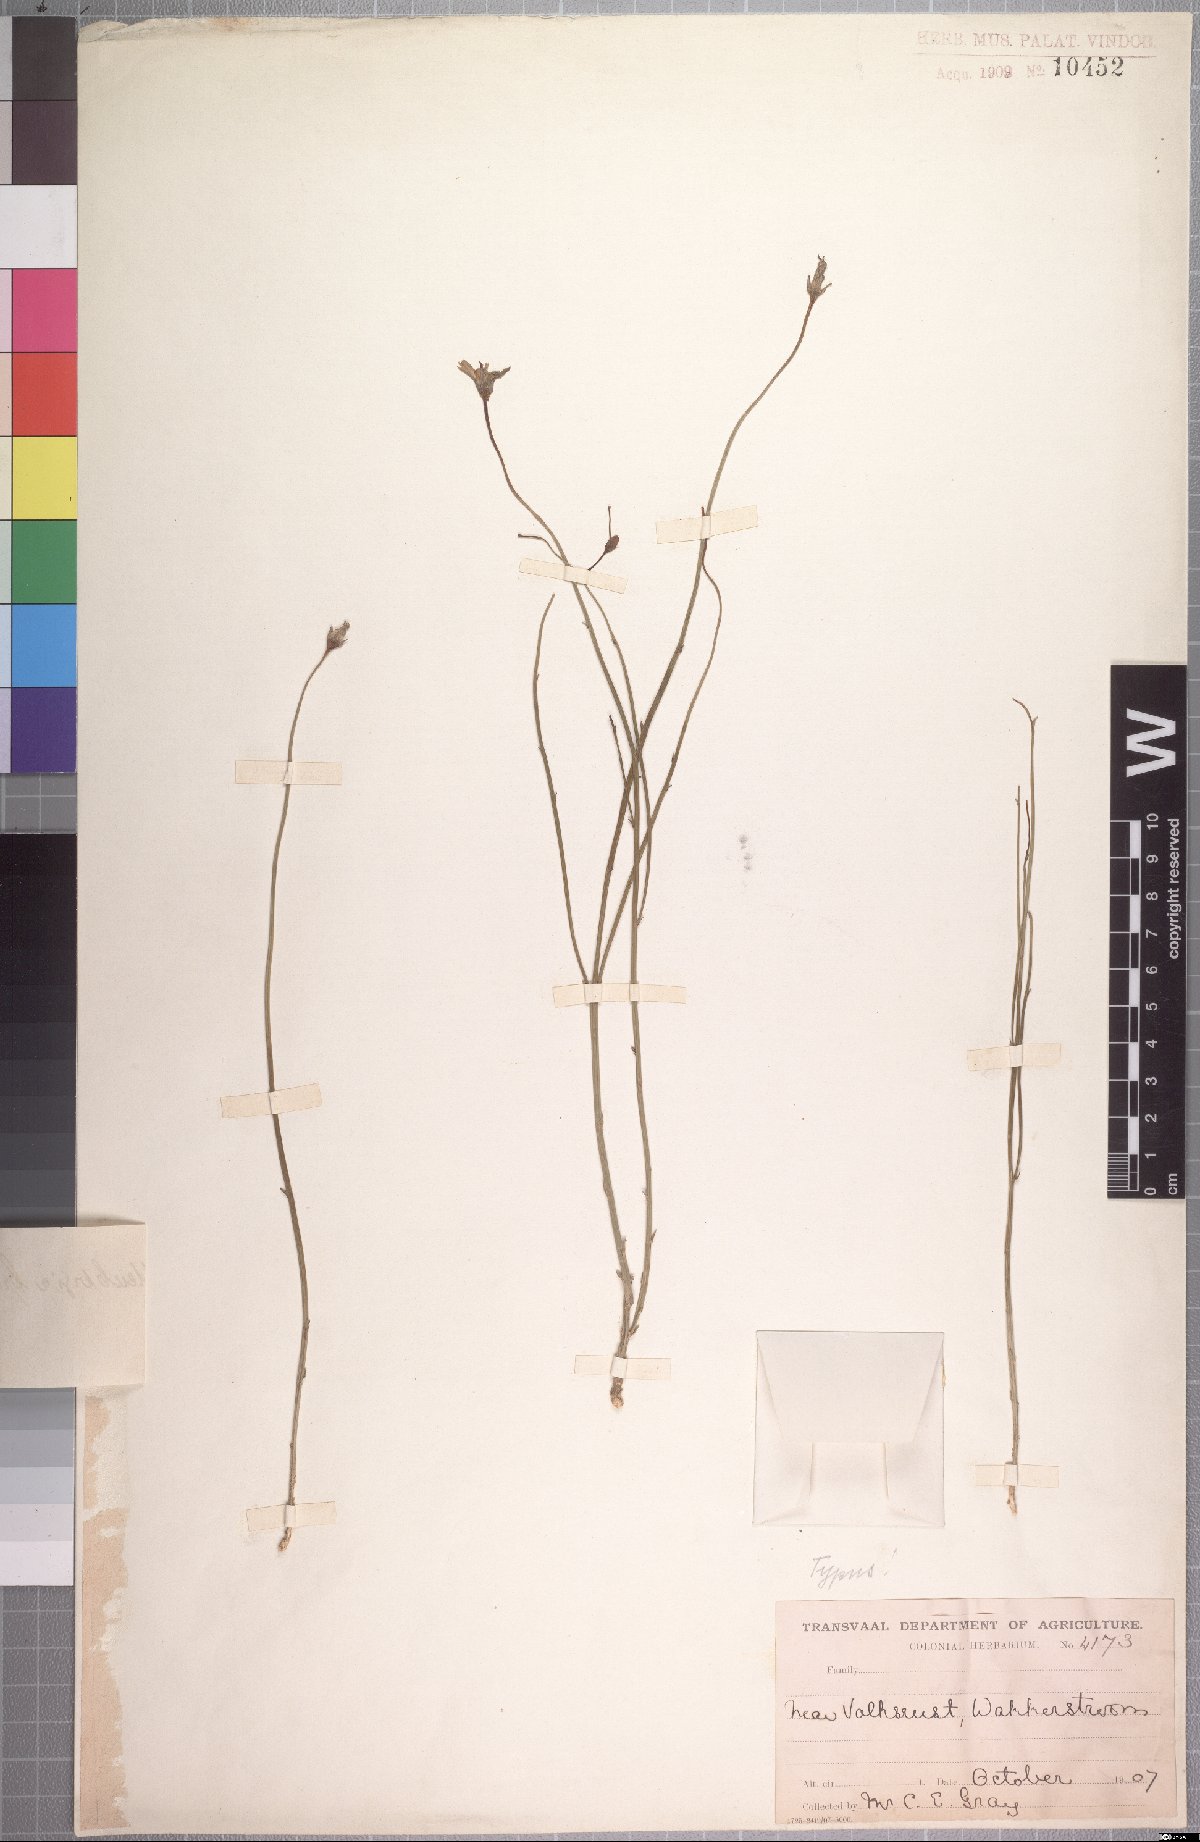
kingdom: Plantae
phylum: Tracheophyta
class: Magnoliopsida
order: Asterales
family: Campanulaceae
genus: Wahlenbergia
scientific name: Wahlenbergia brevisquamifolia
